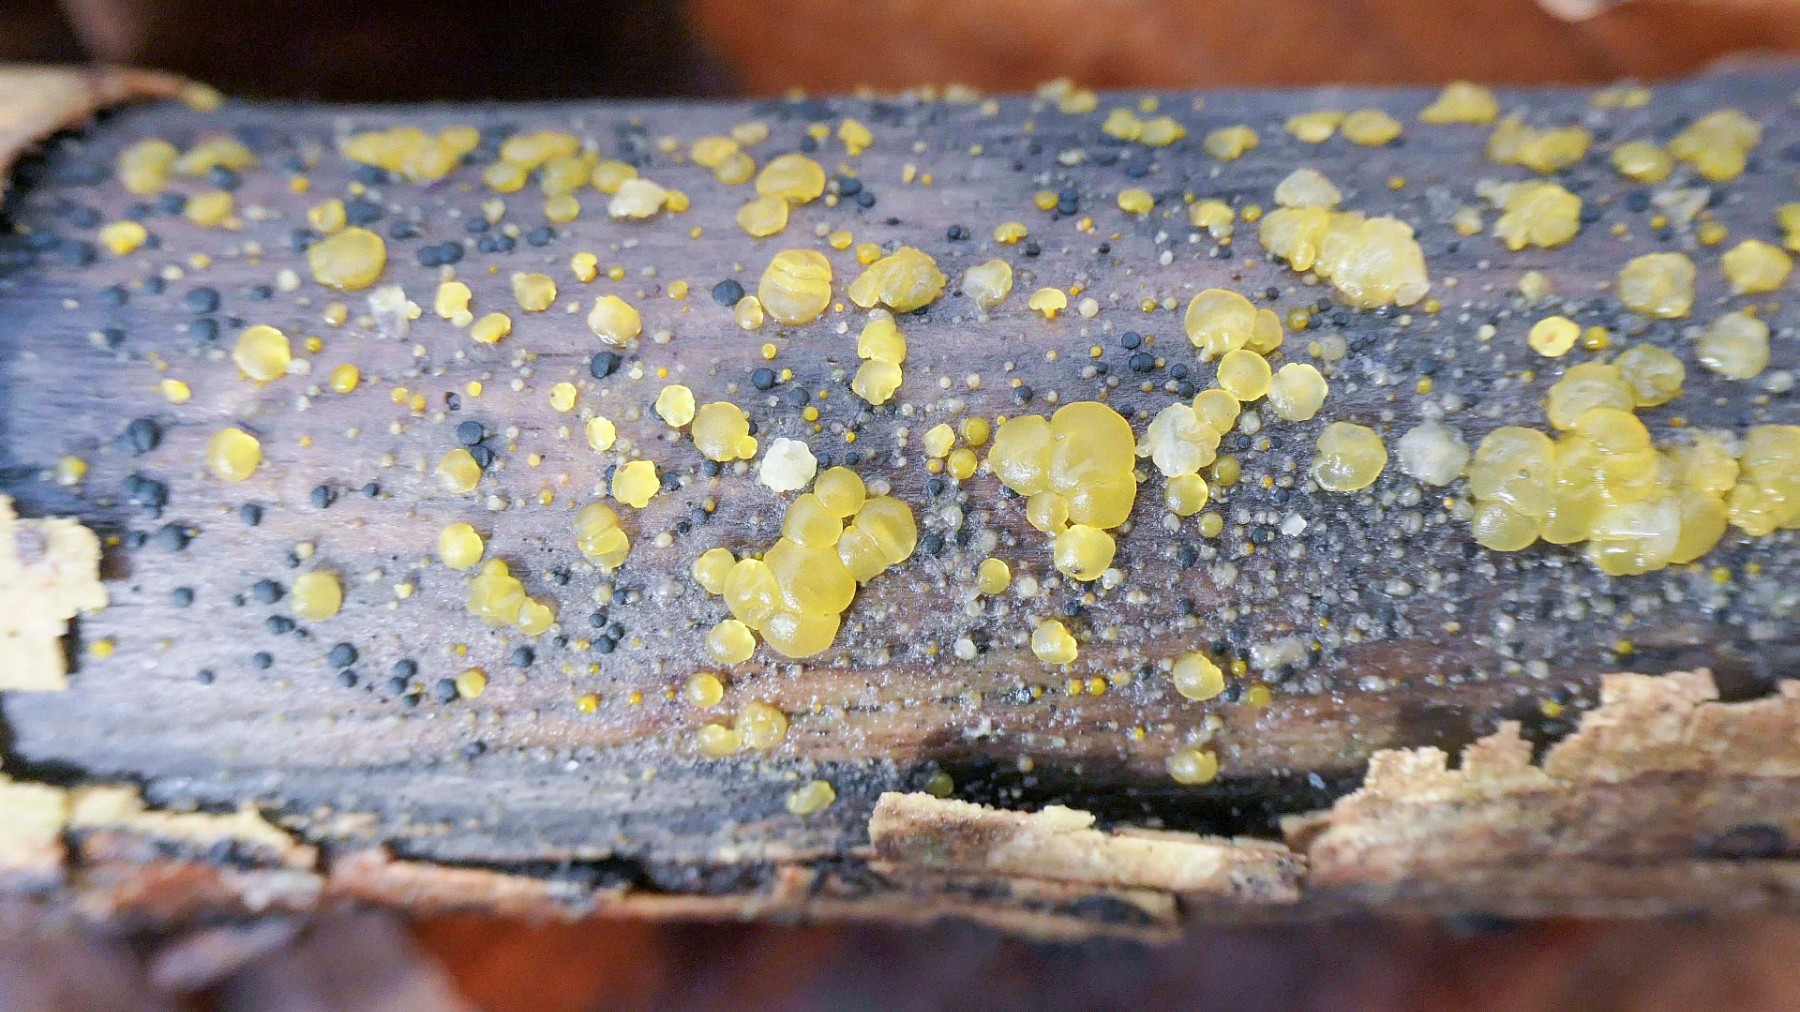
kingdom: Fungi
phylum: Basidiomycota
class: Dacrymycetes
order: Dacrymycetales
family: Dacrymycetaceae
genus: Dacrymyces
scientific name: Dacrymyces lacrymalis
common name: rynket tåresvamp
